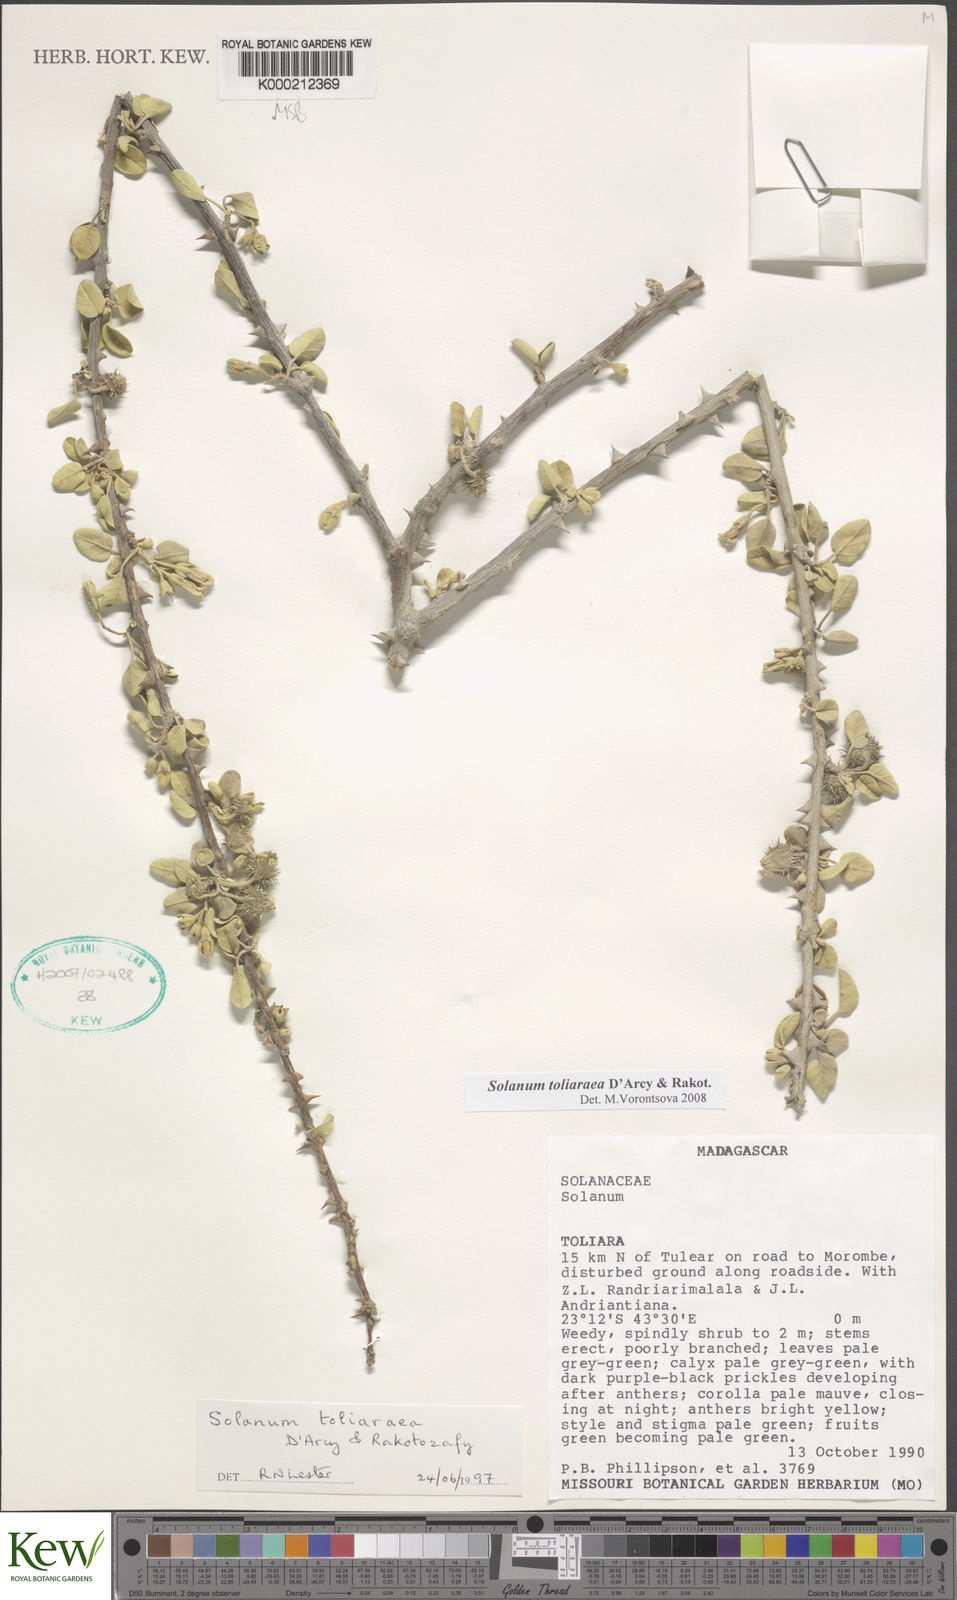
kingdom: Plantae
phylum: Tracheophyta
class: Magnoliopsida
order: Solanales
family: Solanaceae
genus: Solanum
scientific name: Solanum toliaraea
